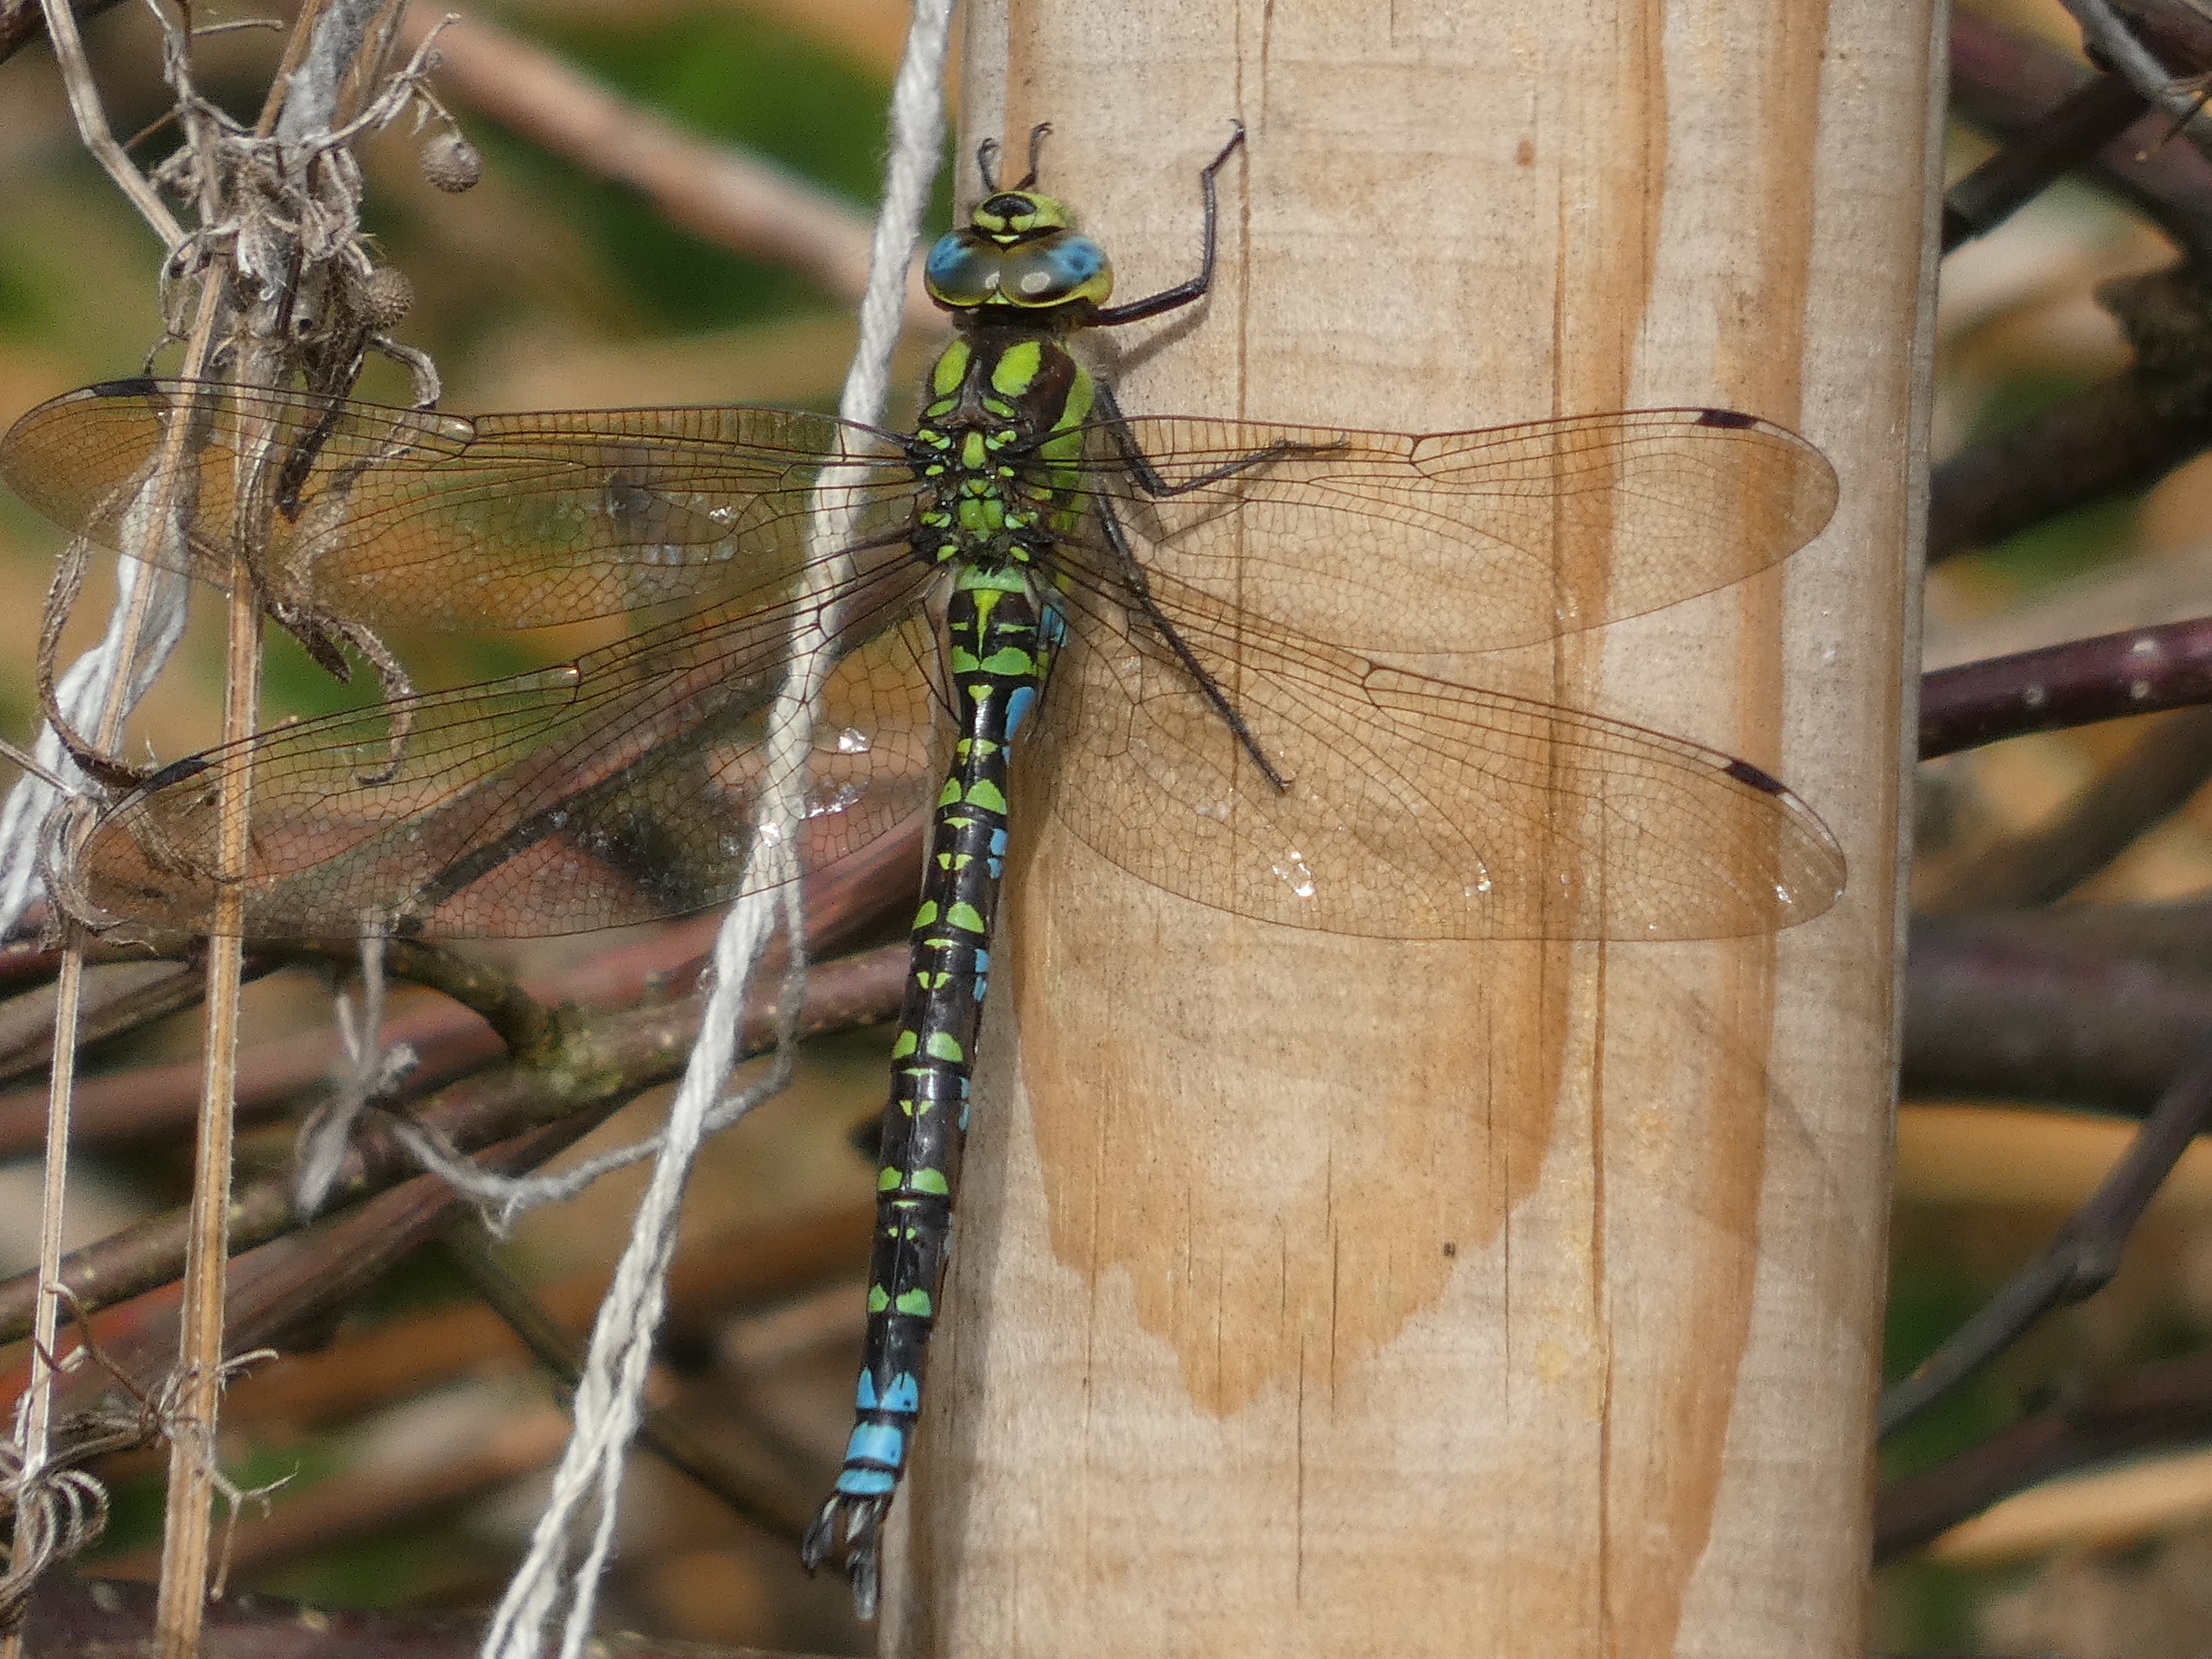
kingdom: Animalia
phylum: Arthropoda
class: Insecta
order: Odonata
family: Aeshnidae
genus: Aeshna
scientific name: Aeshna cyanea
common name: Blå mosaikguldsmed
